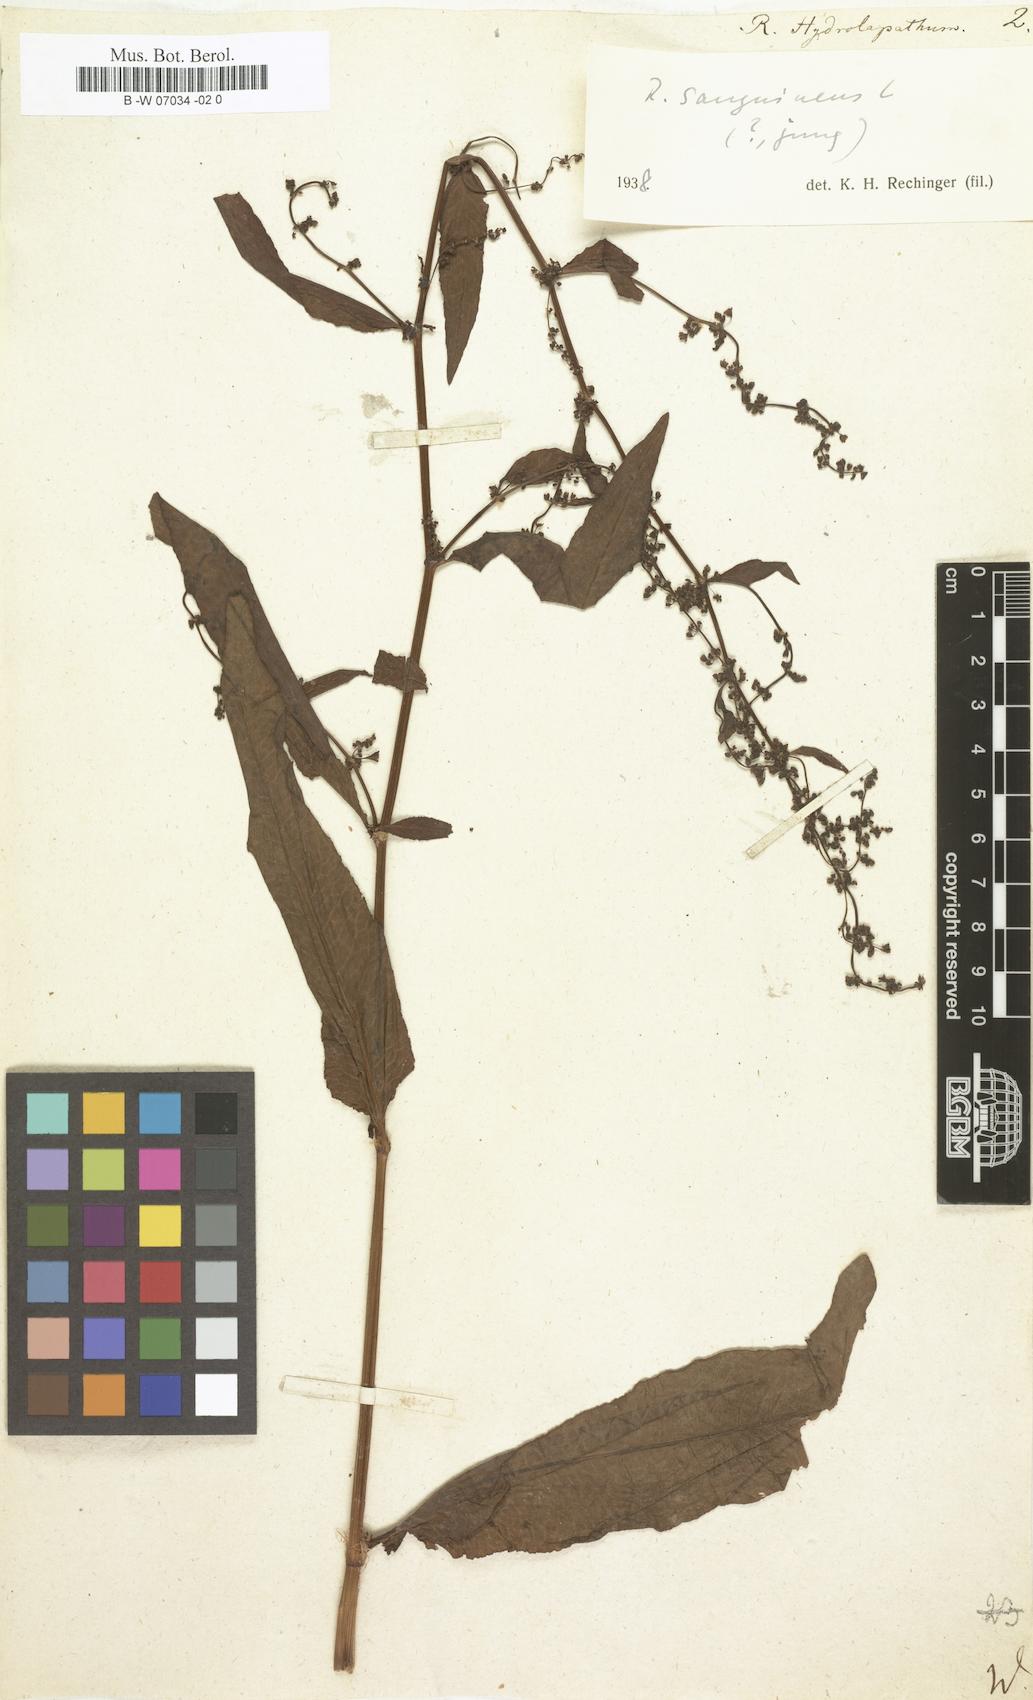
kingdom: Plantae
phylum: Tracheophyta
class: Magnoliopsida
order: Caryophyllales
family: Polygonaceae
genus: Rumex
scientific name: Rumex hydrolapathum
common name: Water dock
